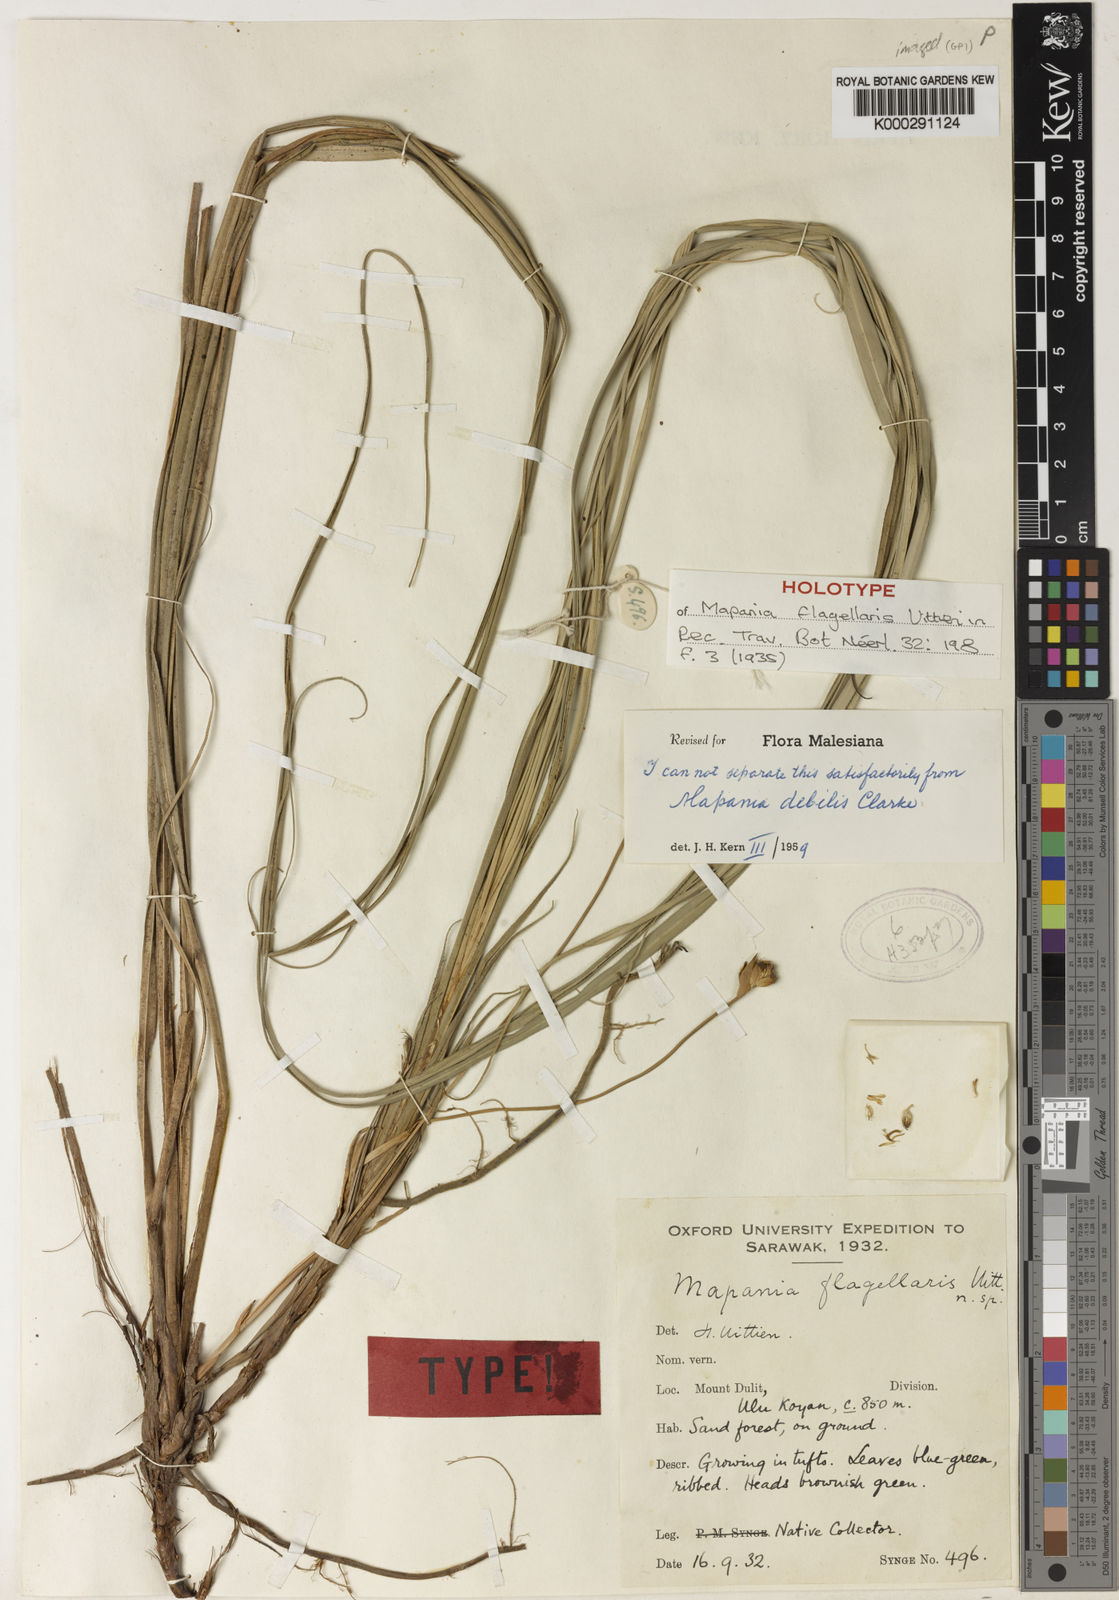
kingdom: Plantae
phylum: Tracheophyta
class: Liliopsida
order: Poales
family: Cyperaceae
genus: Mapania
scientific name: Mapania
